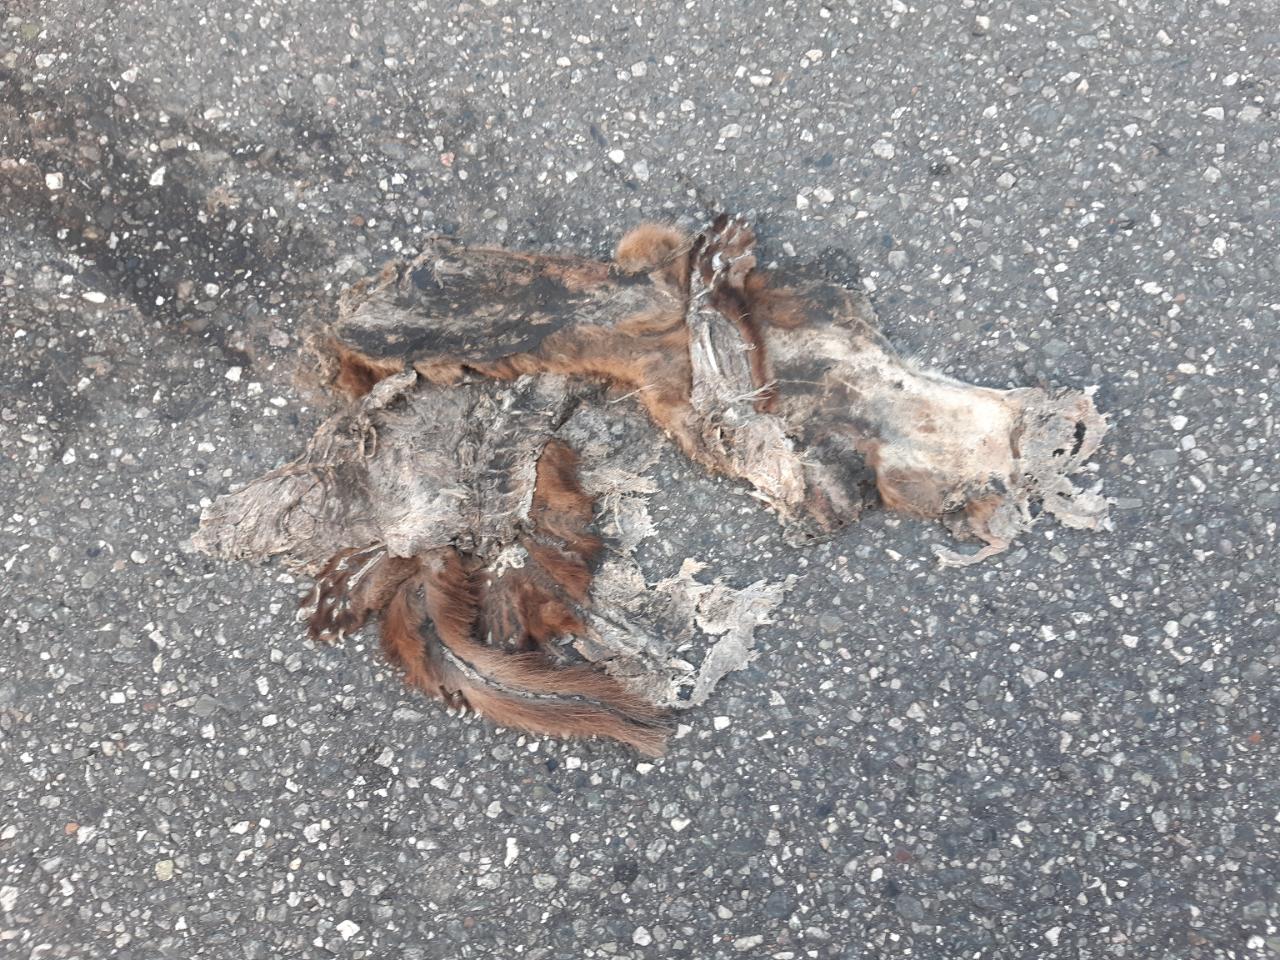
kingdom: Animalia
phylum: Chordata
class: Mammalia
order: Carnivora
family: Mustelidae
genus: Martes
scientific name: Martes foina
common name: Beech marten
